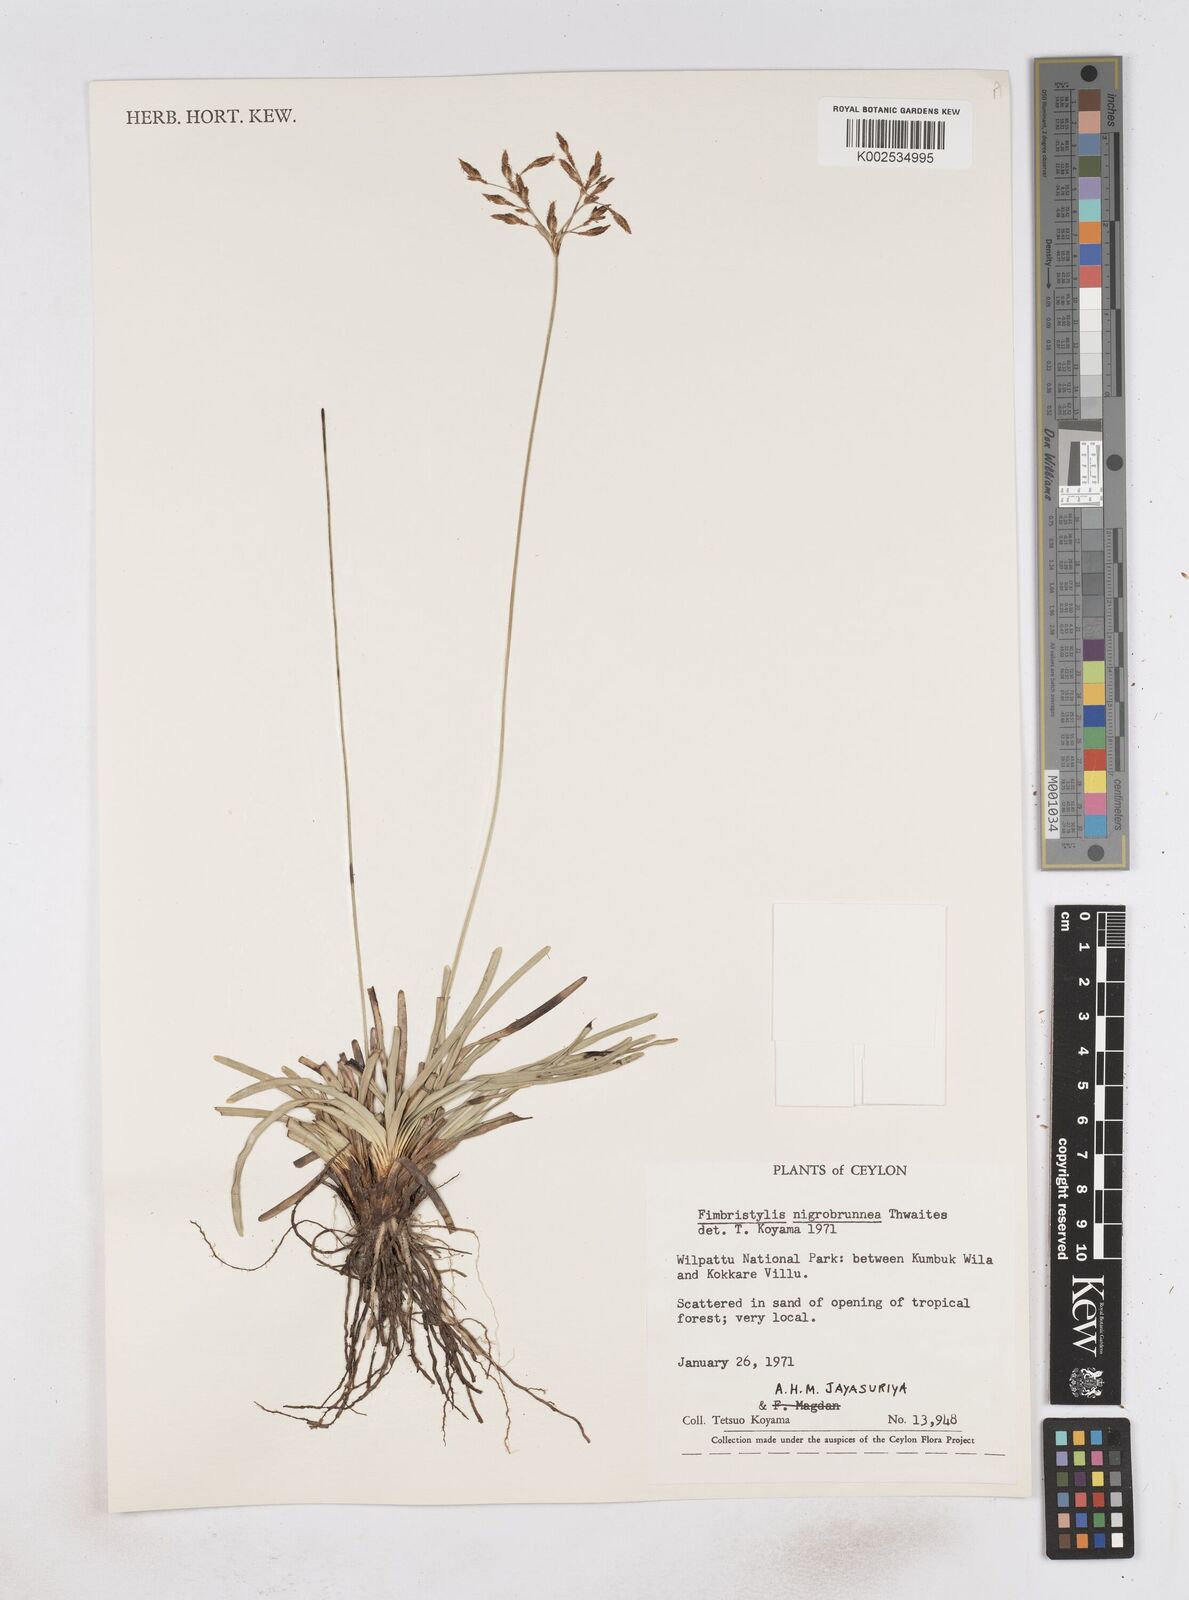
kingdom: Plantae
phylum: Tracheophyta
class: Liliopsida
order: Poales
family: Cyperaceae
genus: Fimbristylis
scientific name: Fimbristylis nigrobrunnea
